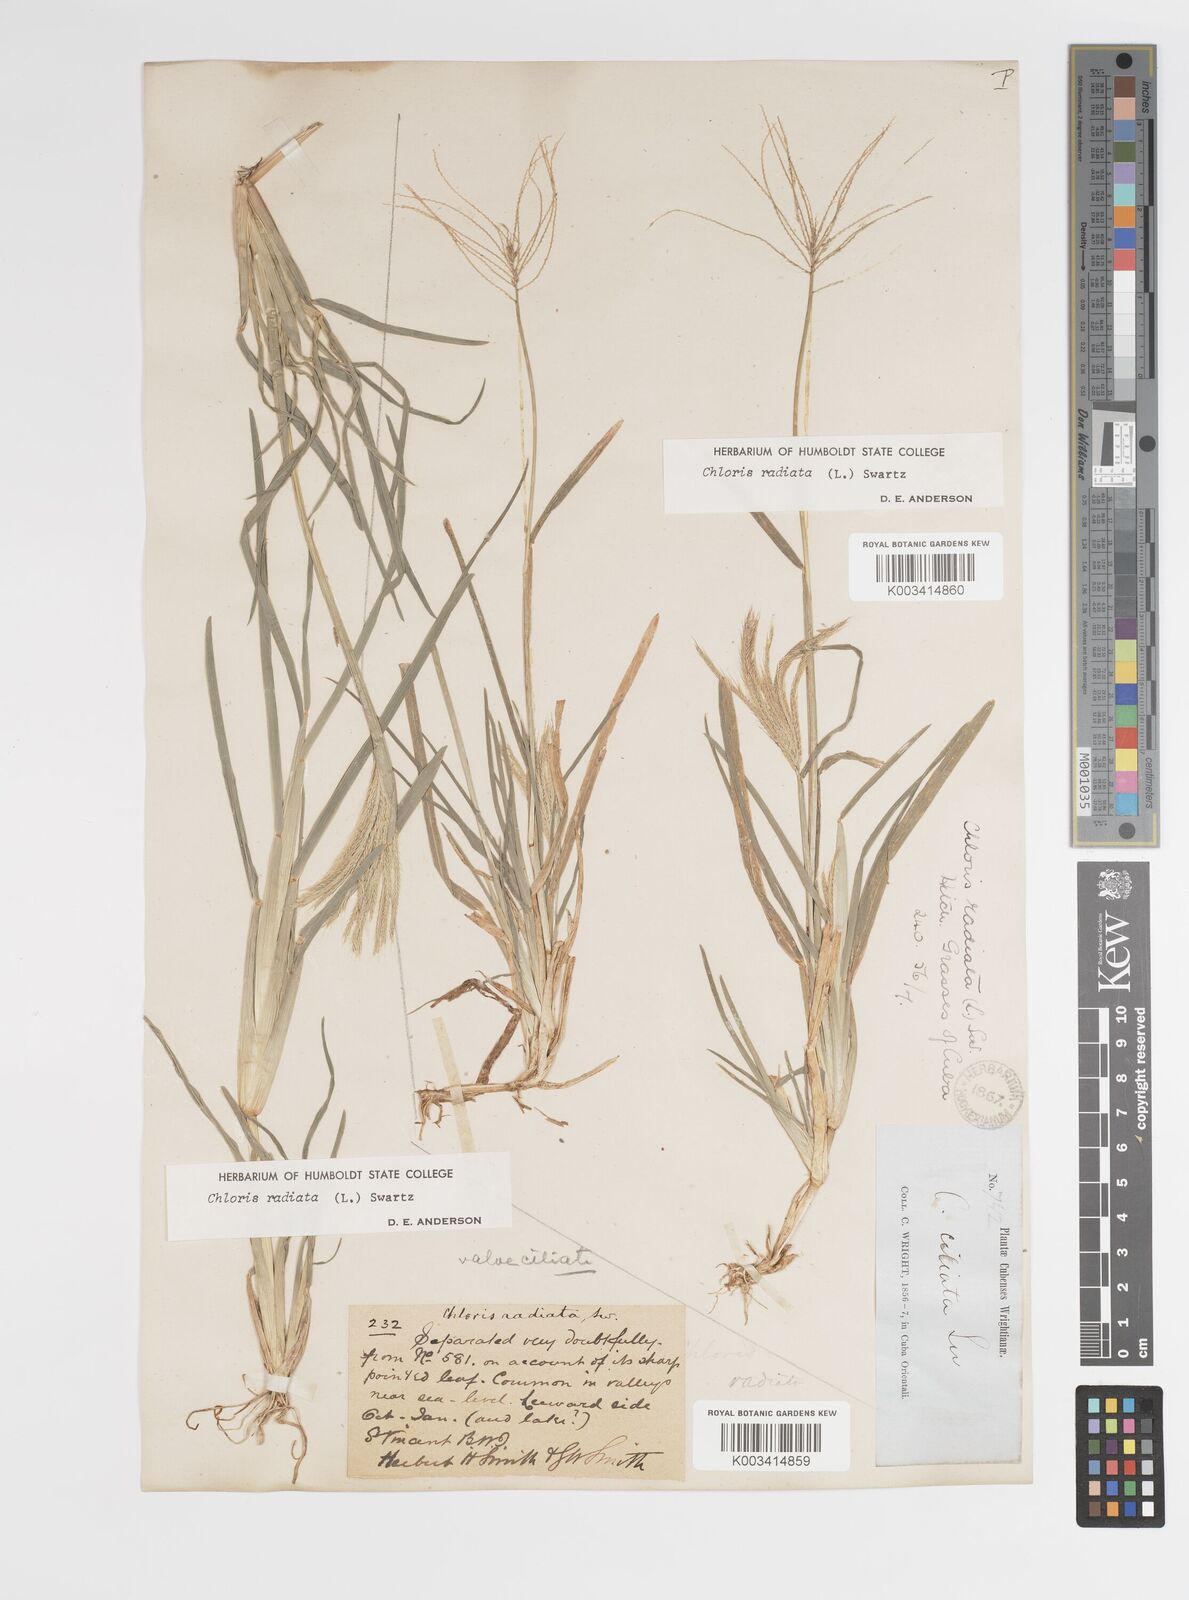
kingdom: Plantae
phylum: Tracheophyta
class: Liliopsida
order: Poales
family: Poaceae
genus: Chloris
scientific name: Chloris radiata
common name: Radiate fingergrass
